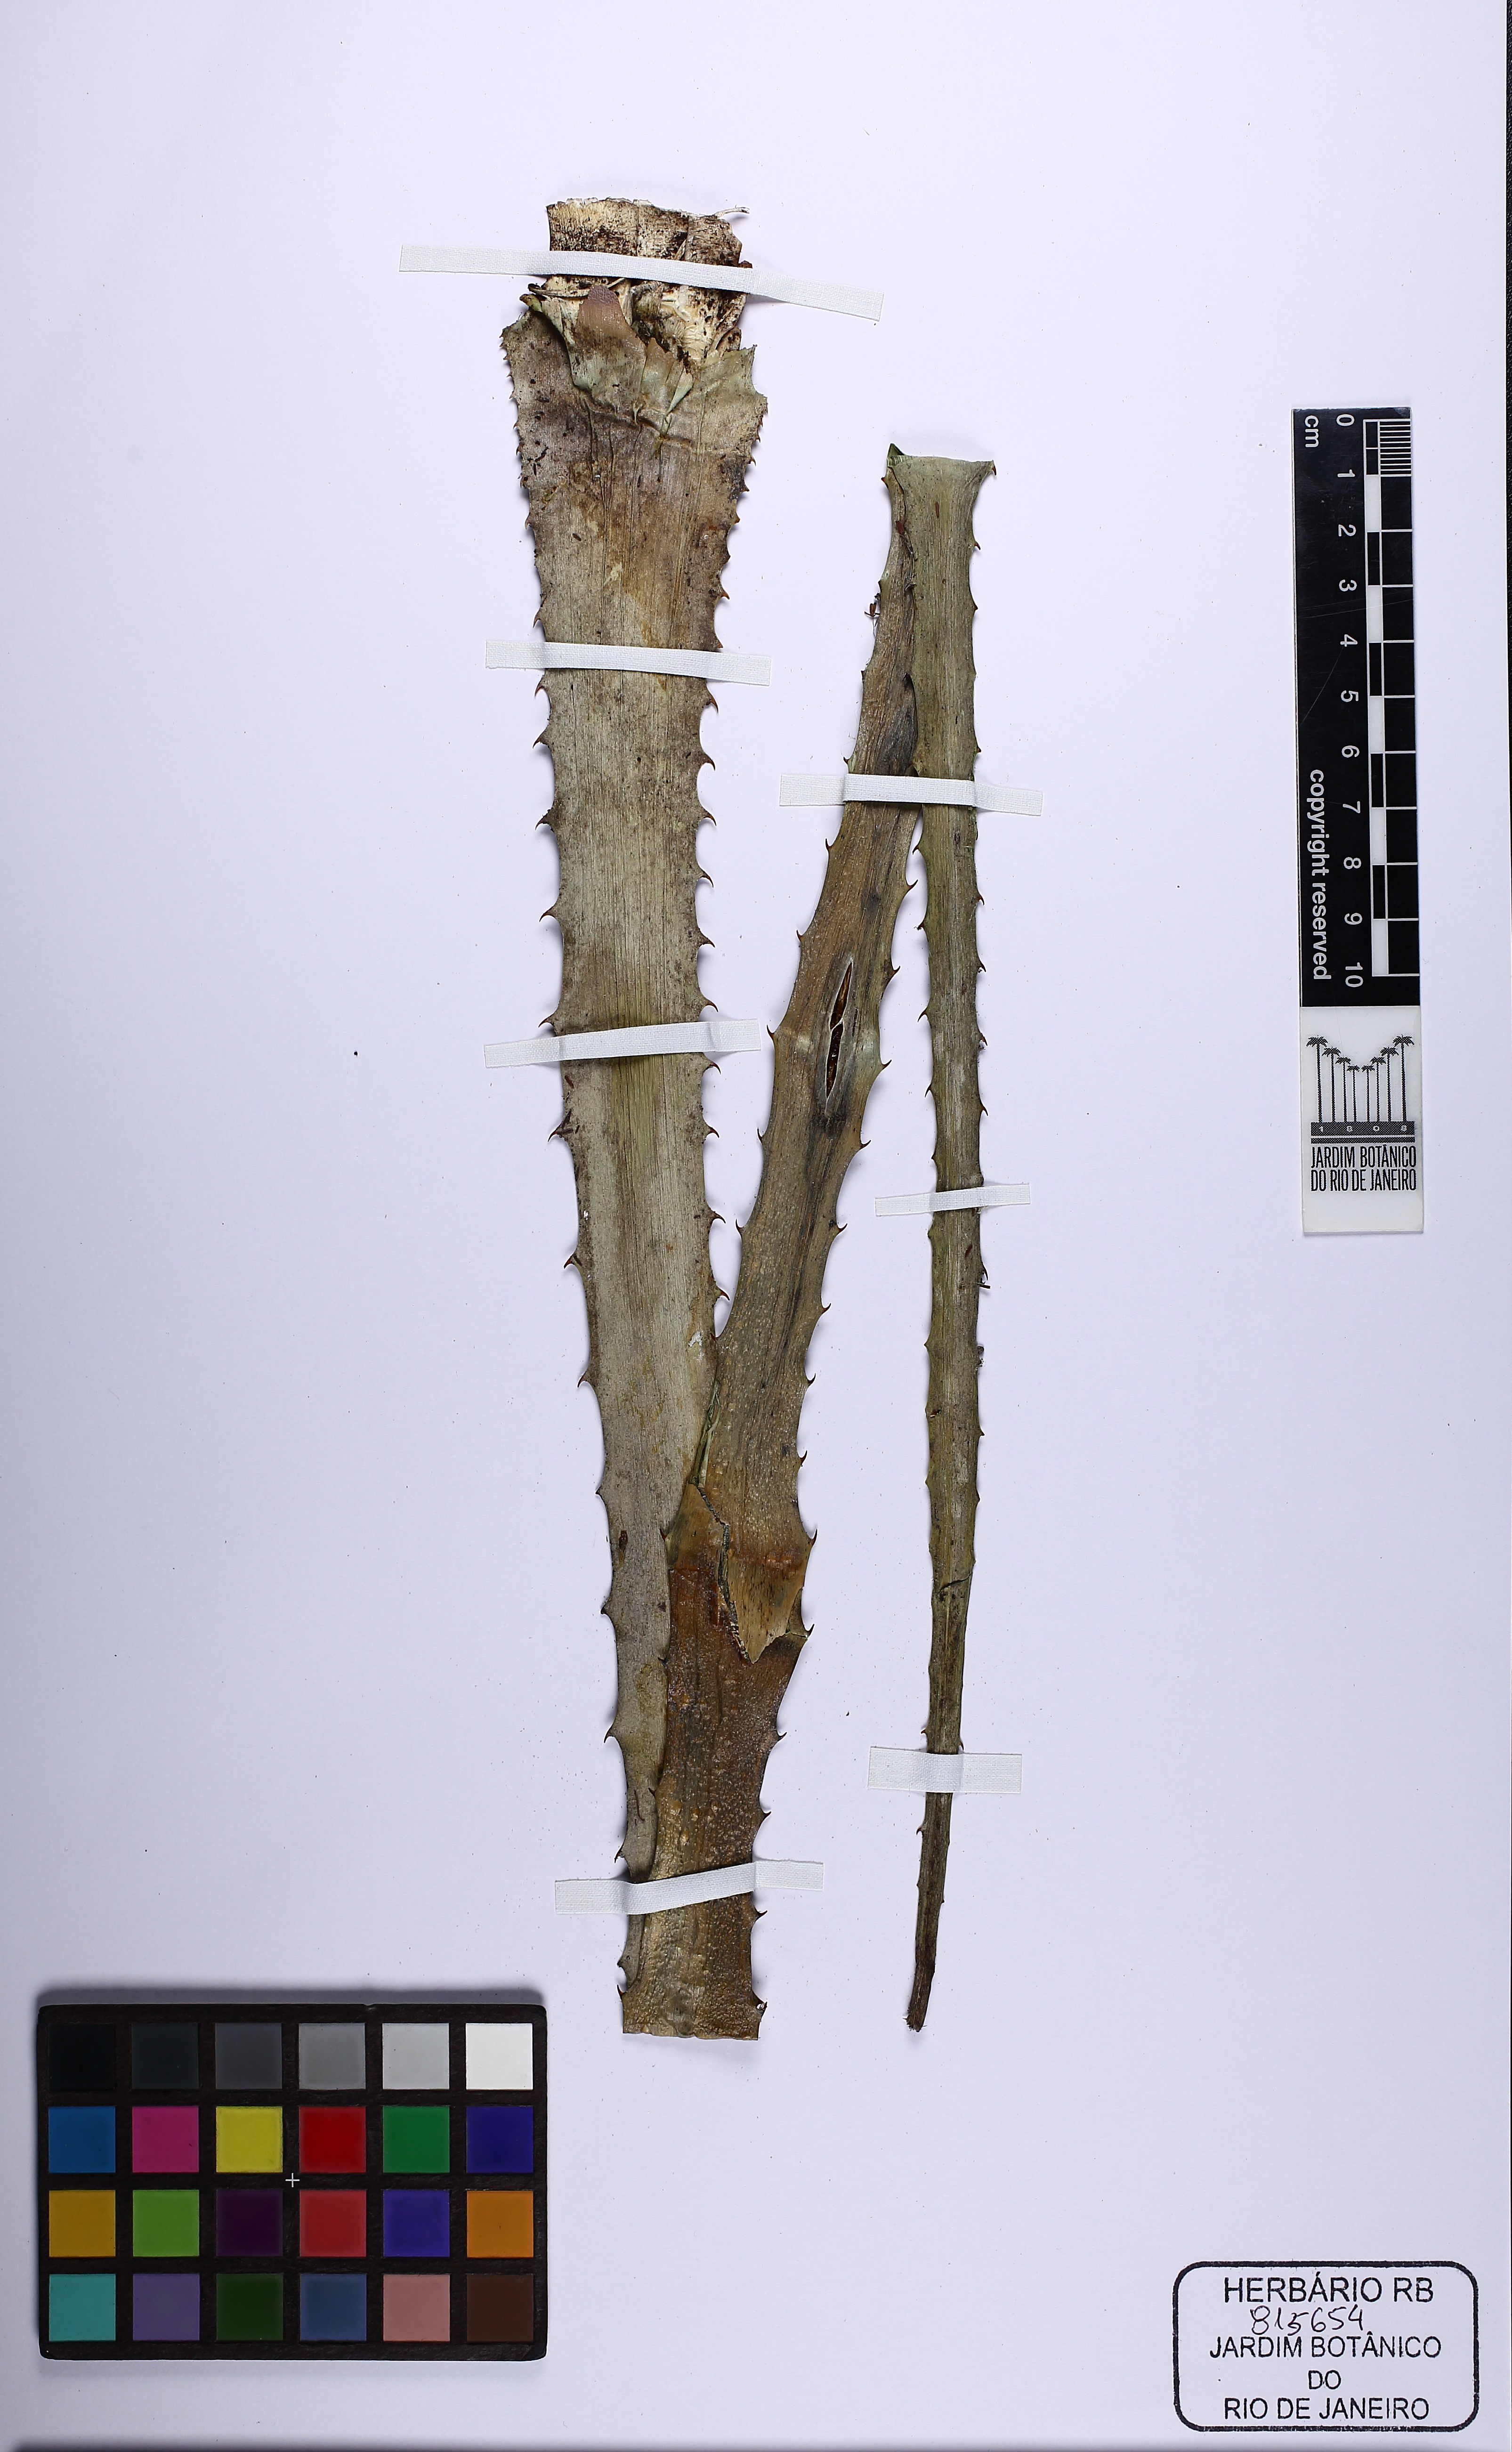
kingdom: Plantae
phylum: Tracheophyta
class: Liliopsida
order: Poales
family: Bromeliaceae
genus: Dyckia
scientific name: Dyckia ferruginea
